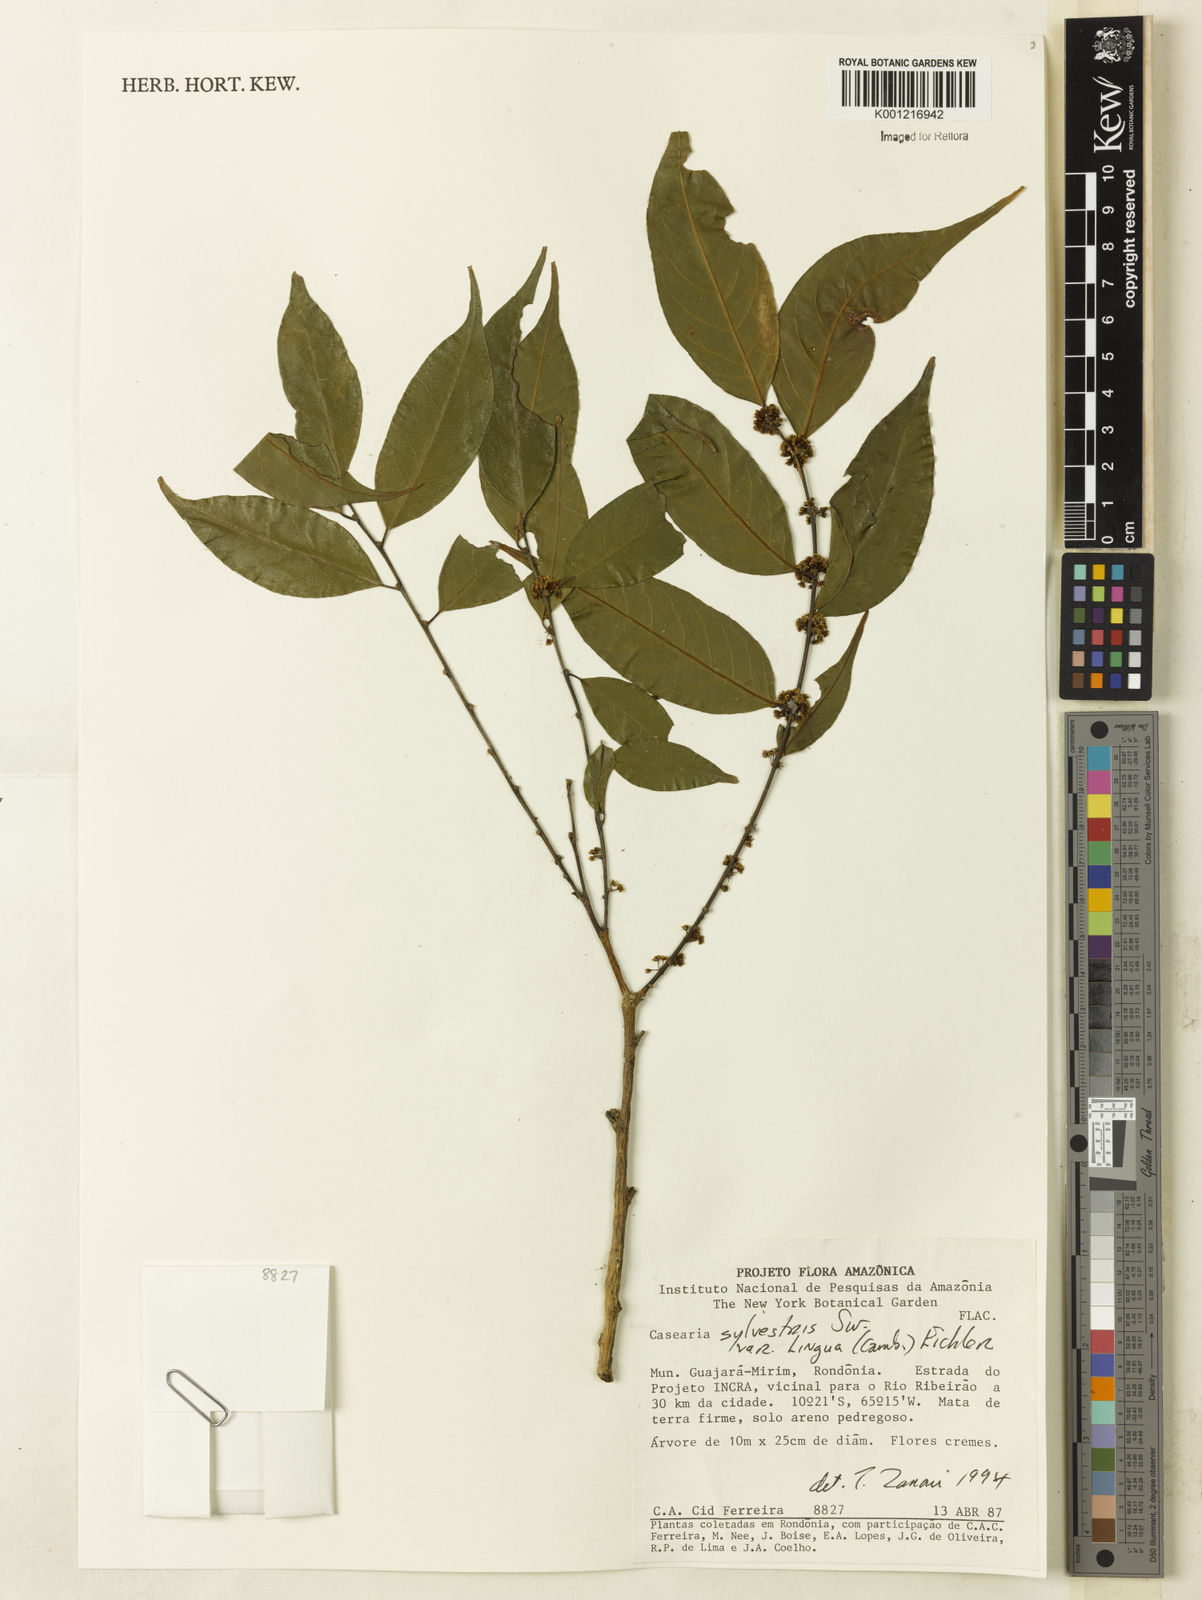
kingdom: Plantae
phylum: Tracheophyta
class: Magnoliopsida
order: Malpighiales
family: Salicaceae
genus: Casearia
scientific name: Casearia sylvestris
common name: Wild sage
